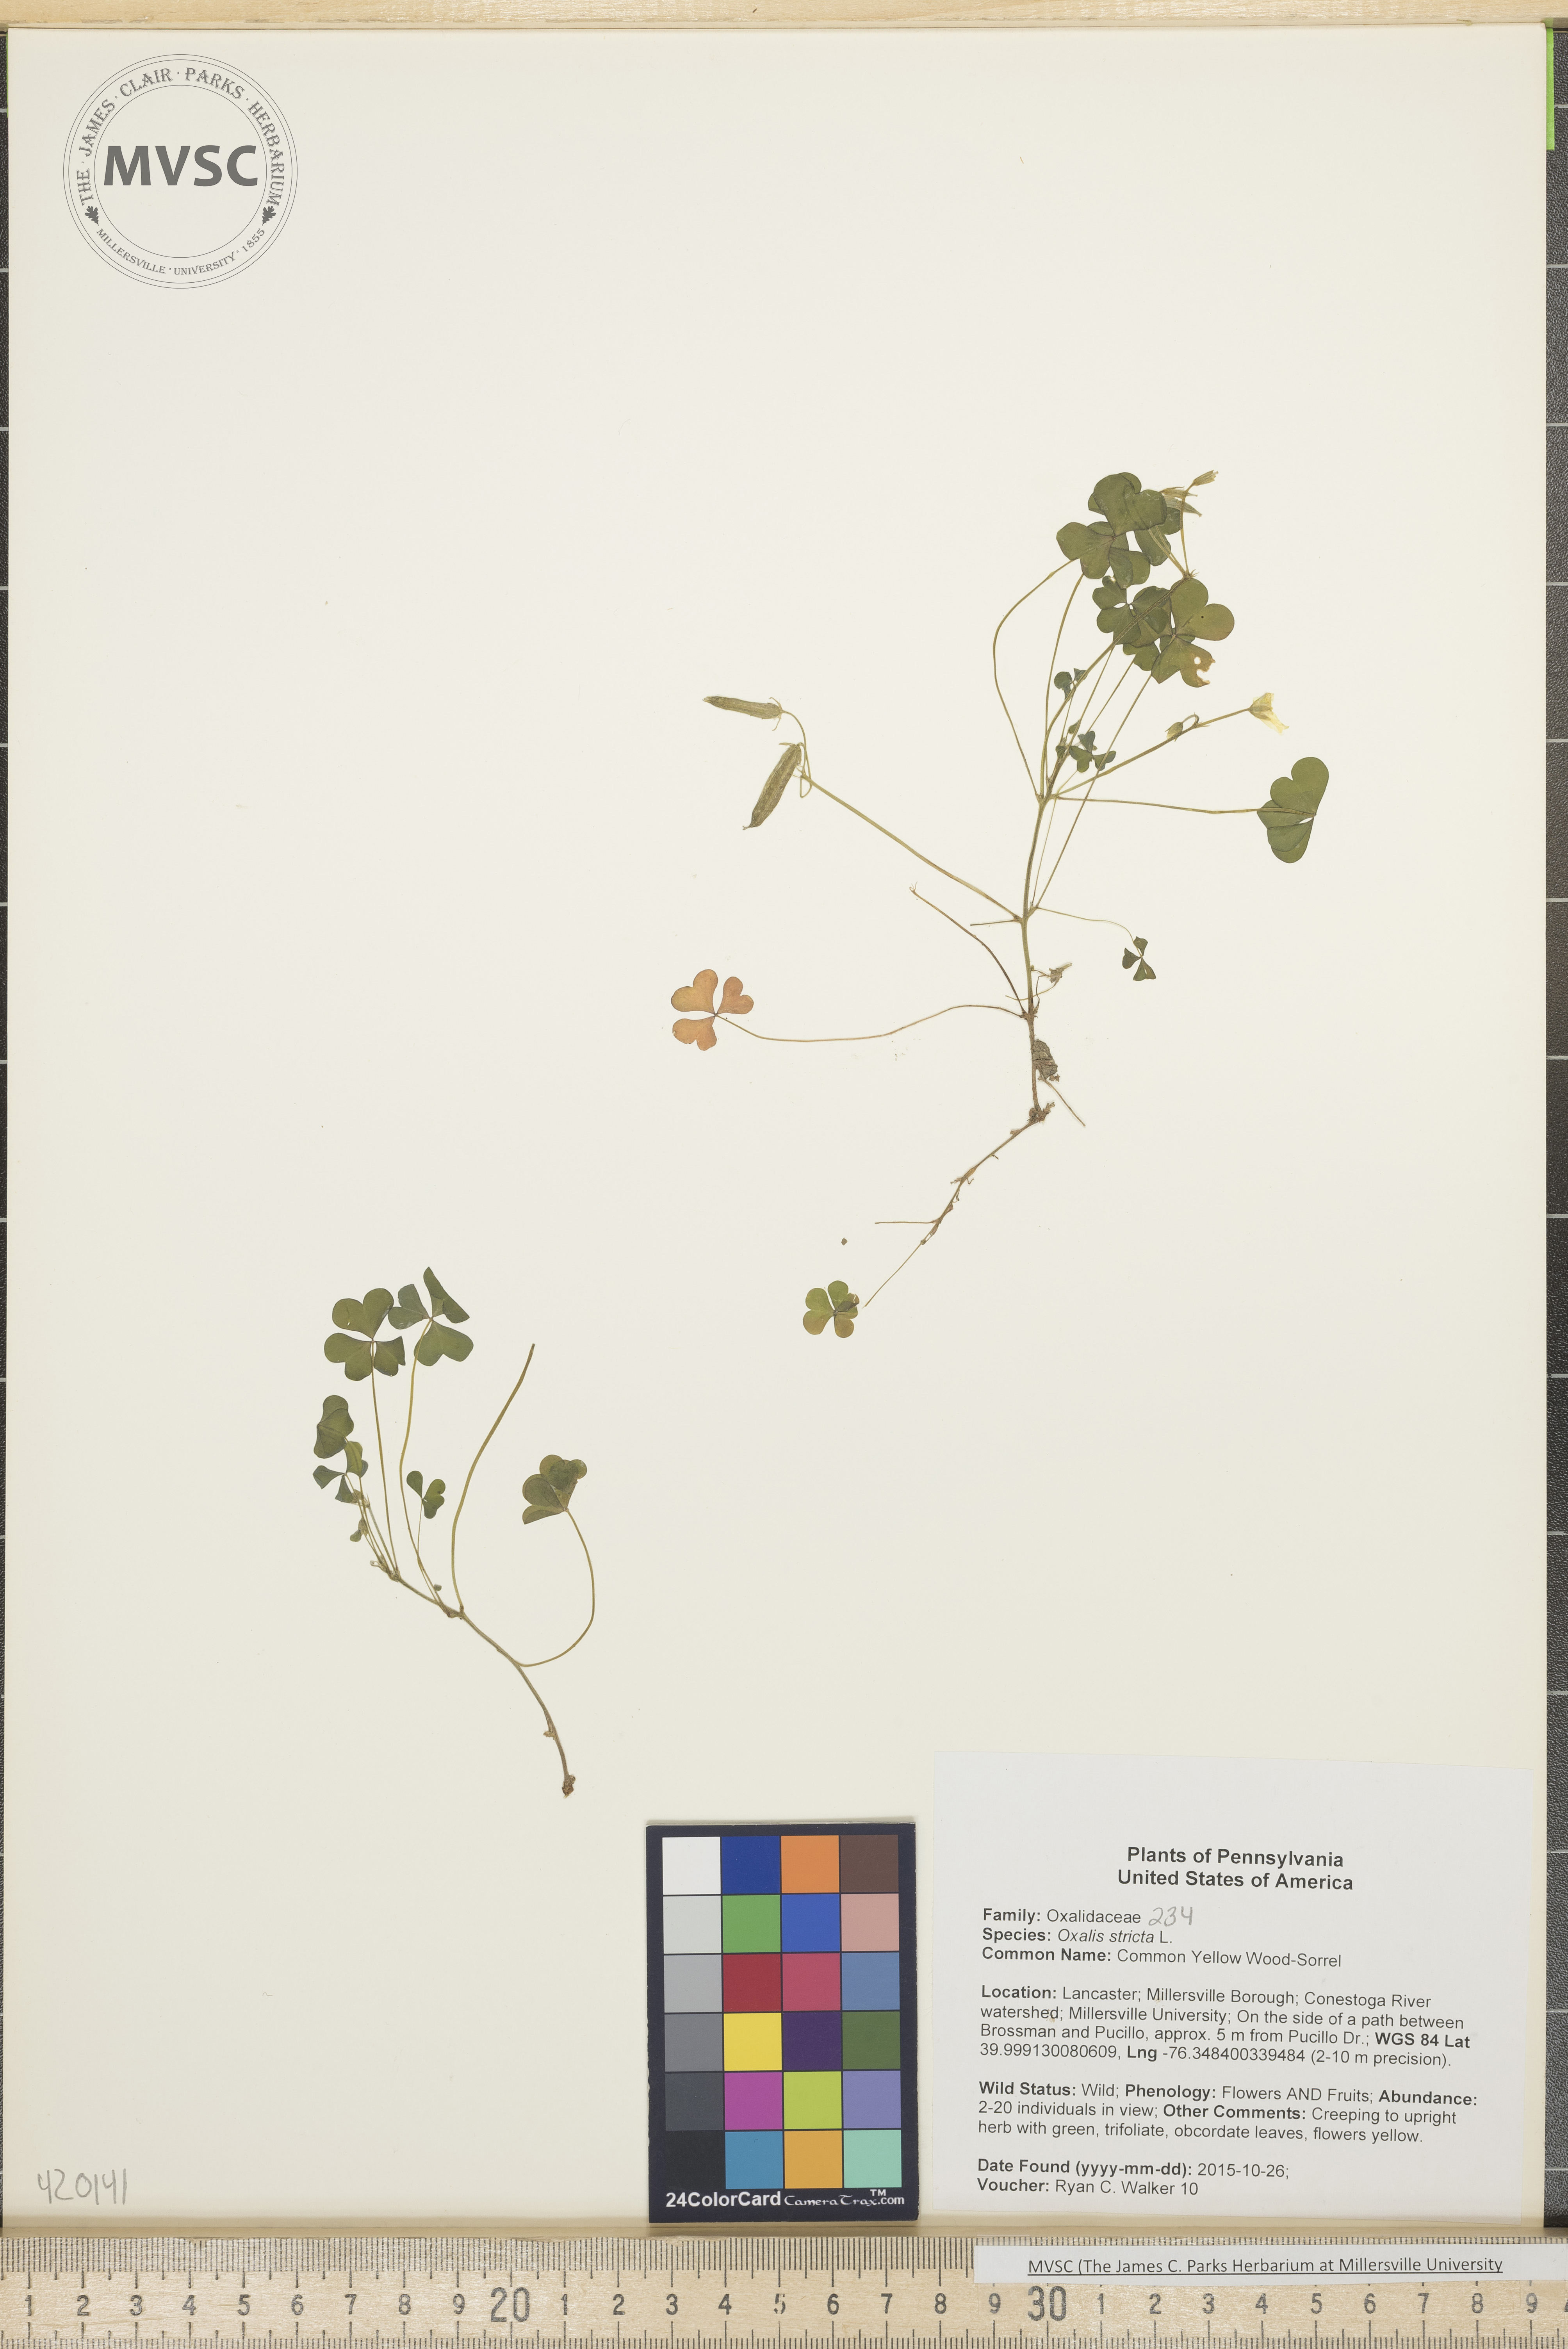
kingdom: Plantae
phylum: Tracheophyta
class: Magnoliopsida
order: Oxalidales
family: Oxalidaceae
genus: Oxalis
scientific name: Oxalis stricta
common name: Common Yellow Wood-Sorrel
